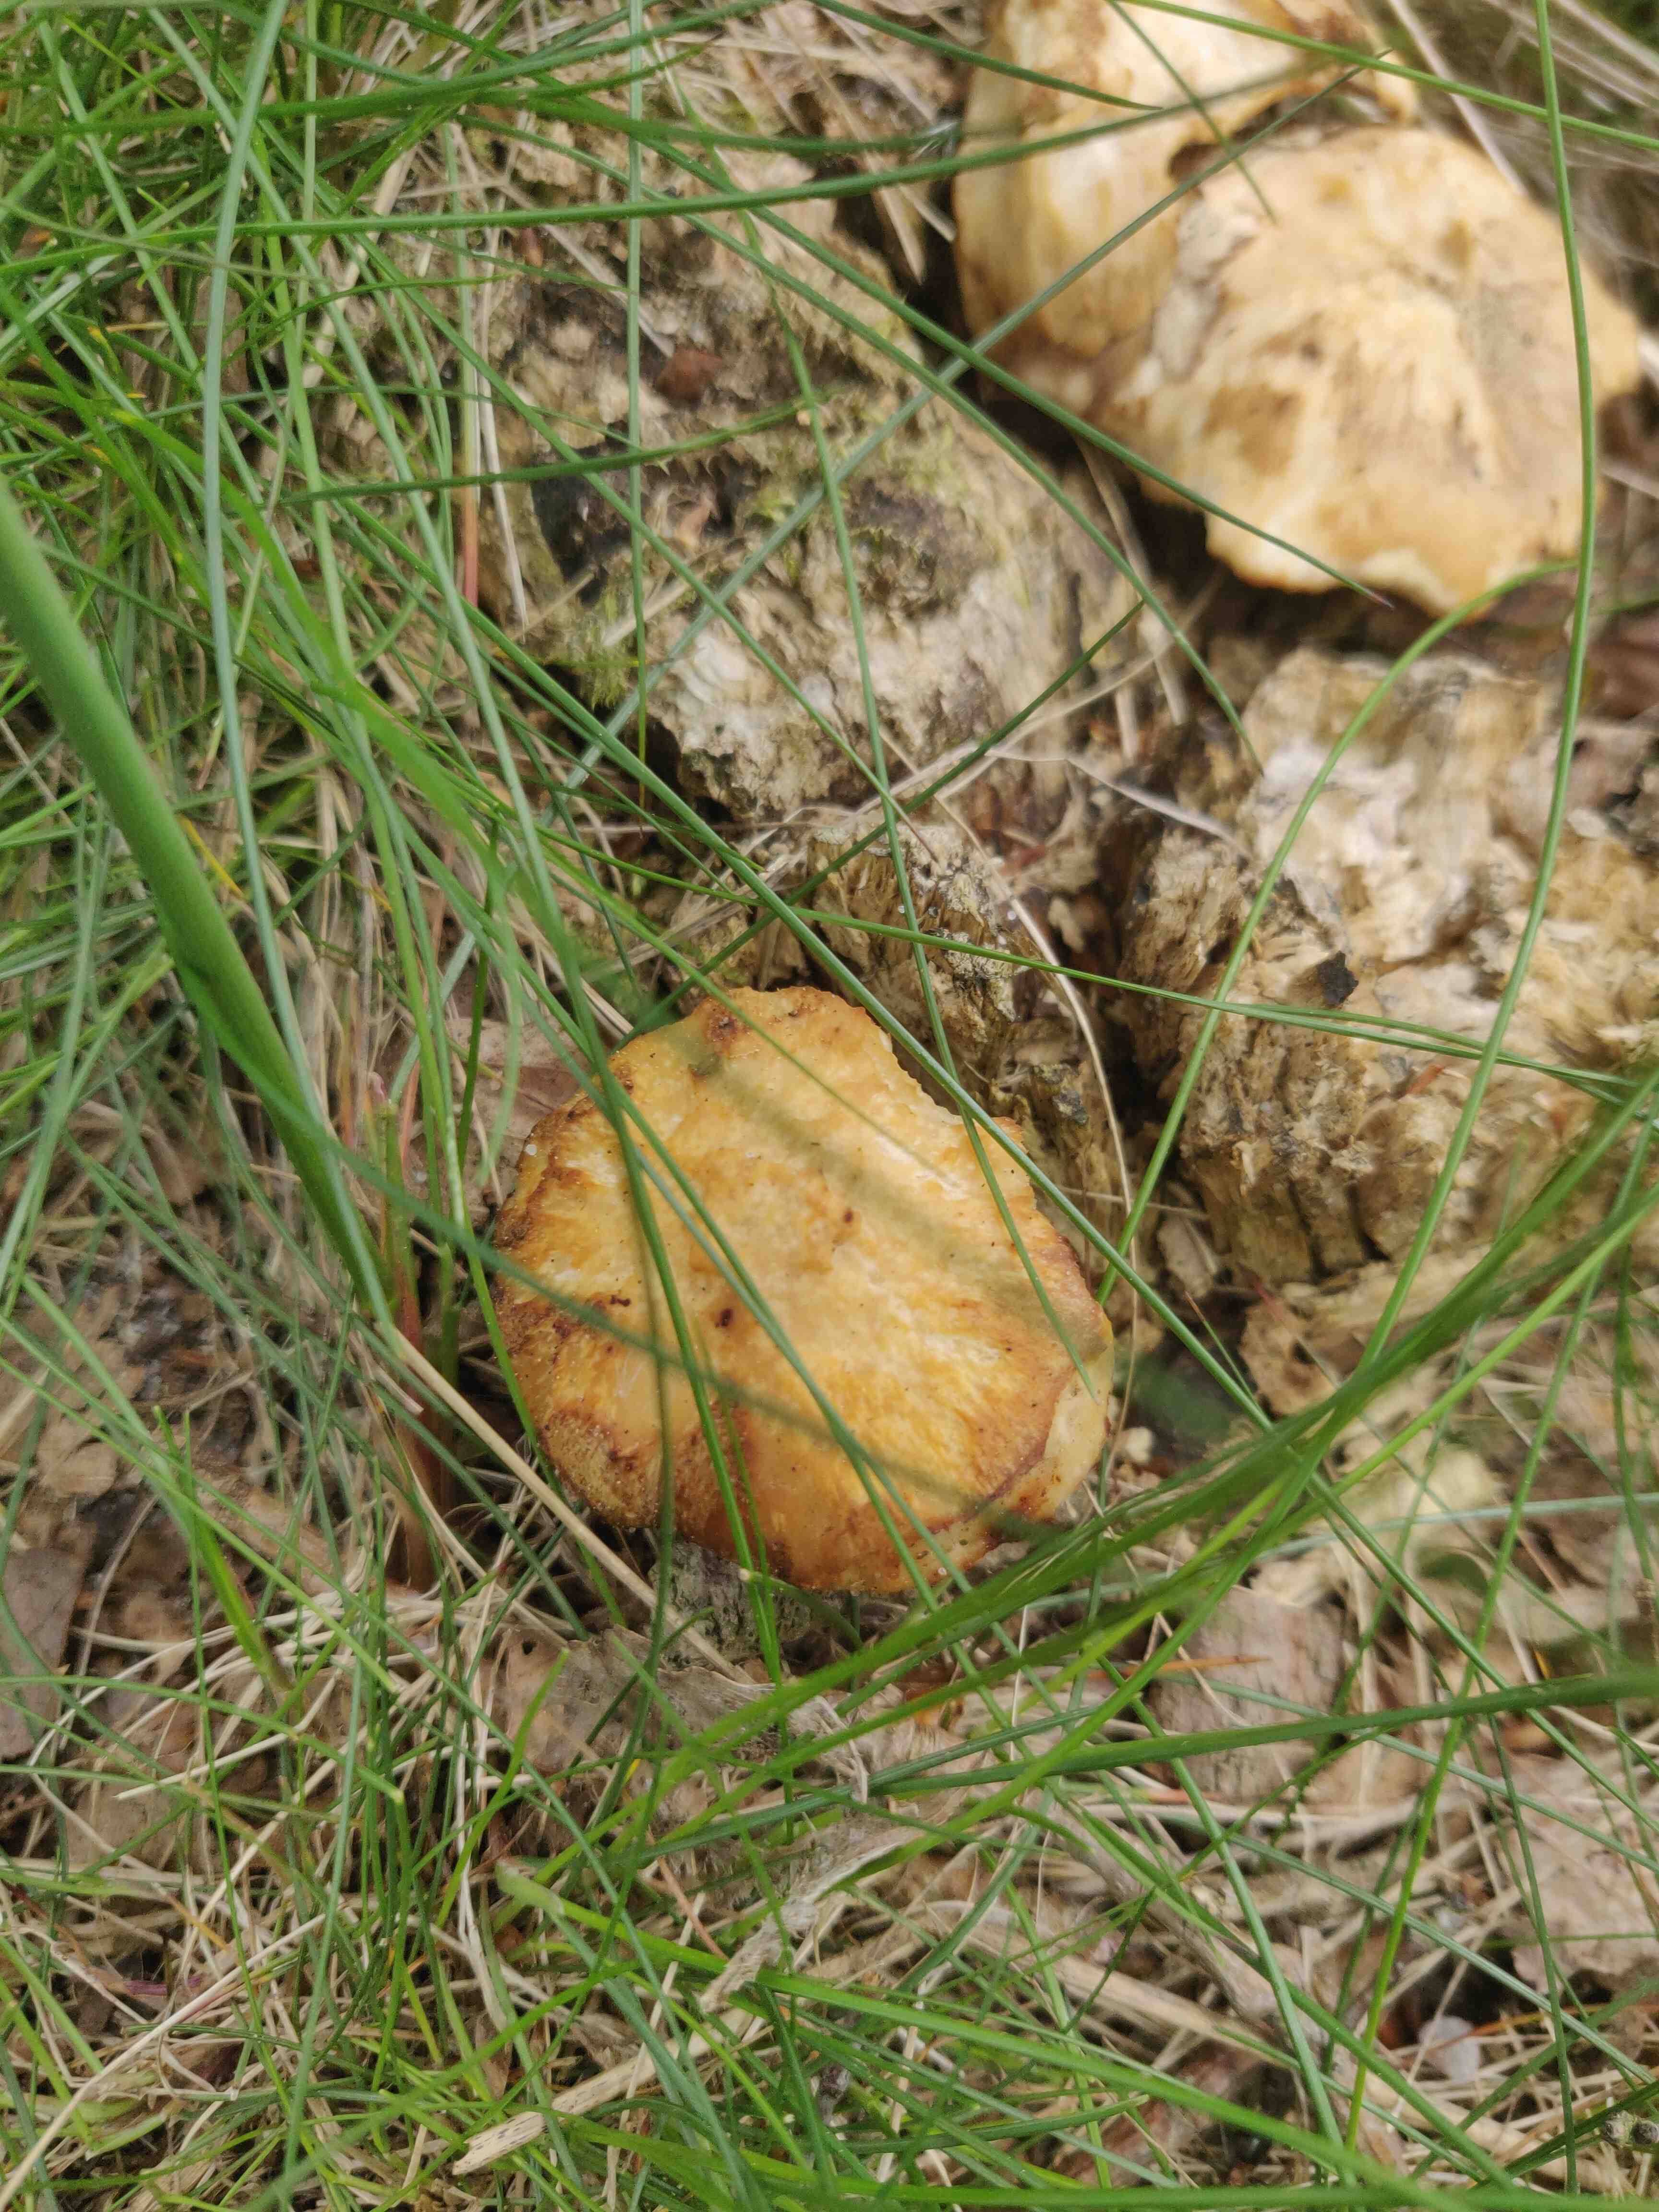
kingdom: Fungi
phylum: Basidiomycota
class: Agaricomycetes
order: Polyporales
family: Polyporaceae
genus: Lentinus
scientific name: Lentinus substrictus
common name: forårs-stilkporesvamp
